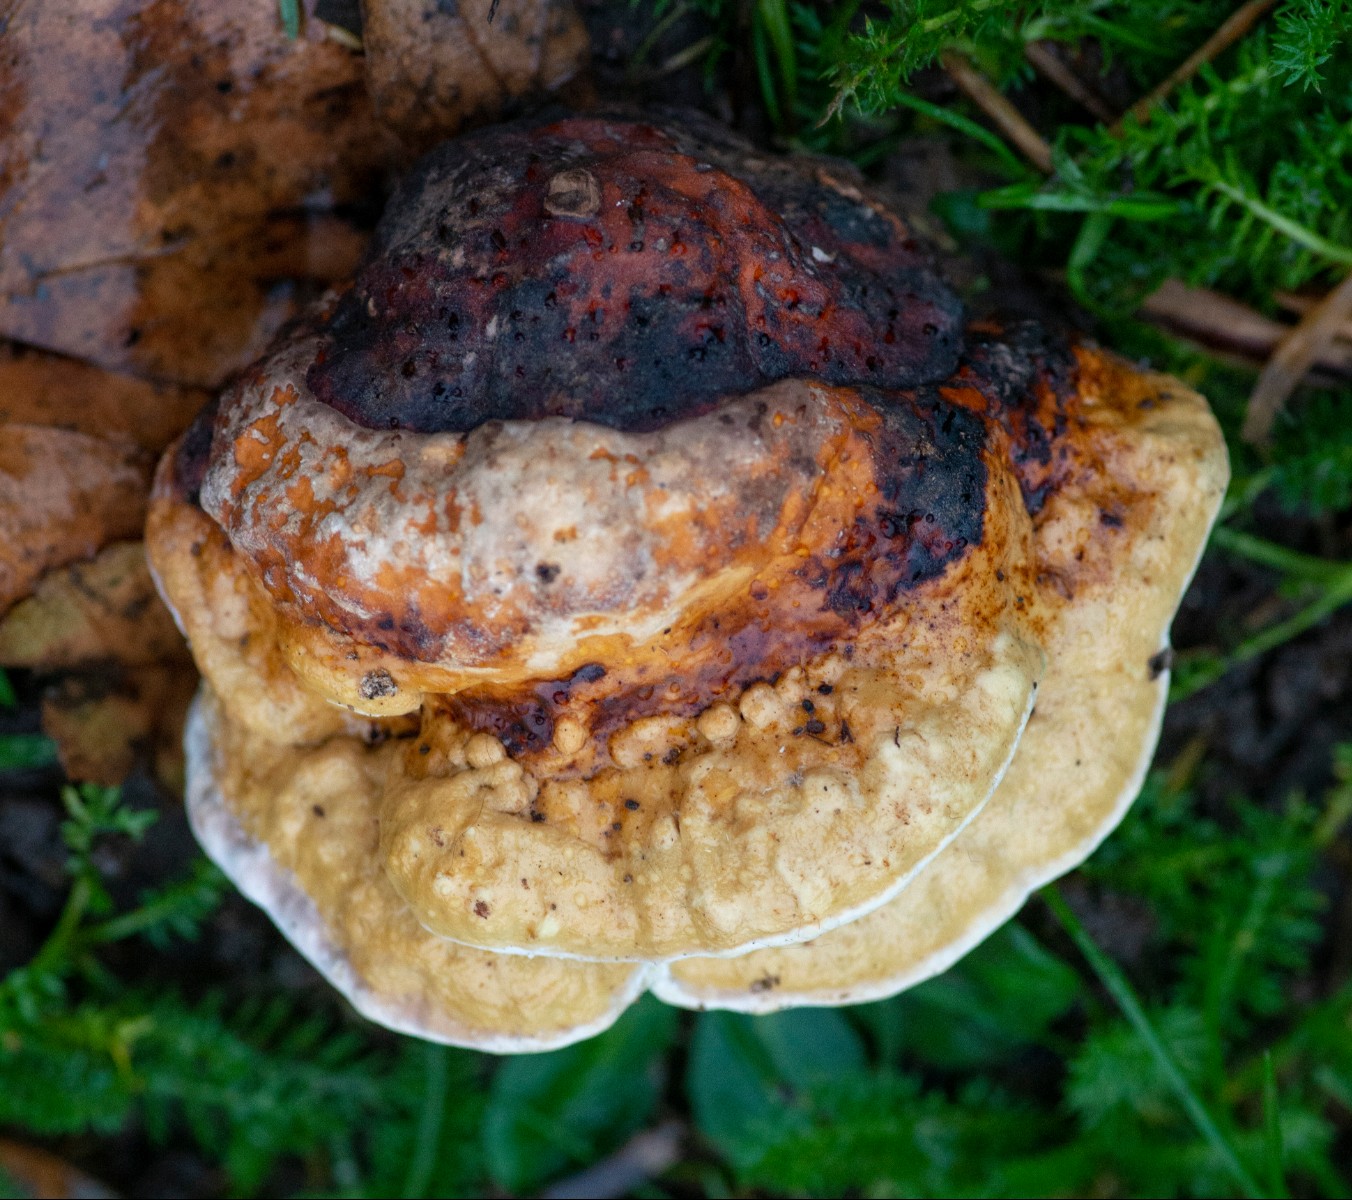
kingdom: Fungi
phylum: Basidiomycota
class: Agaricomycetes
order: Polyporales
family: Fomitopsidaceae
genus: Fomitopsis
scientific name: Fomitopsis pinicola
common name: randbæltet hovporesvamp
